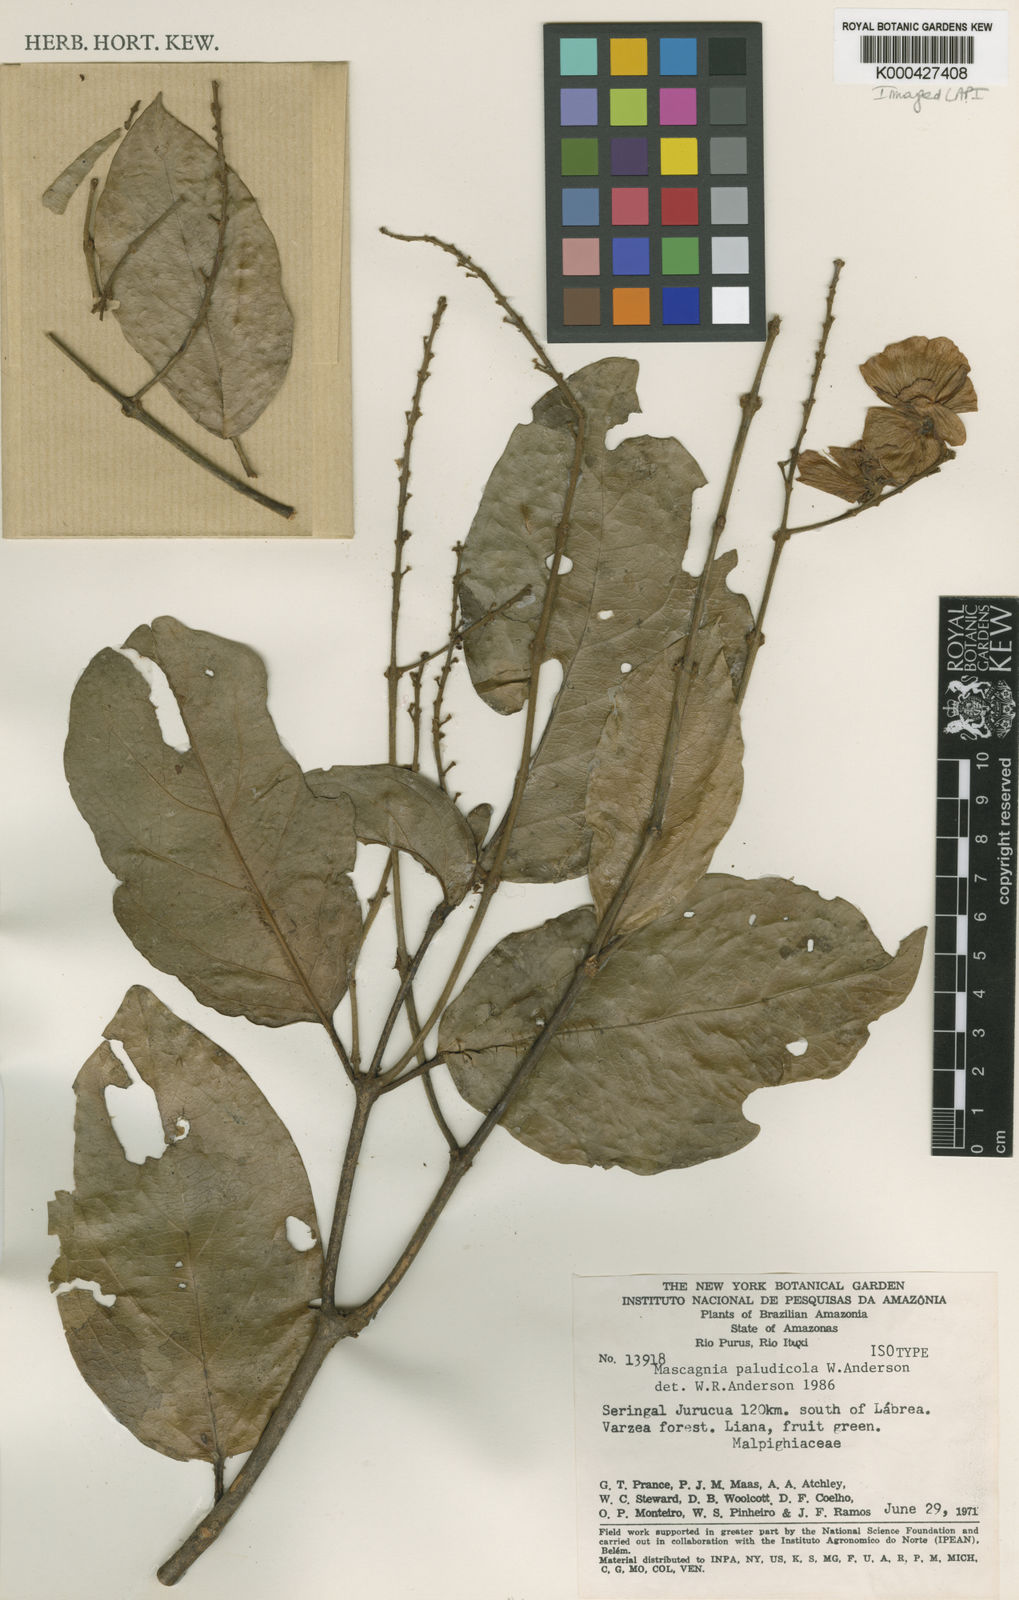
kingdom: Plantae
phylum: Tracheophyta
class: Magnoliopsida
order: Malpighiales
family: Malpighiaceae
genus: Christianella
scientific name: Christianella paludicola
